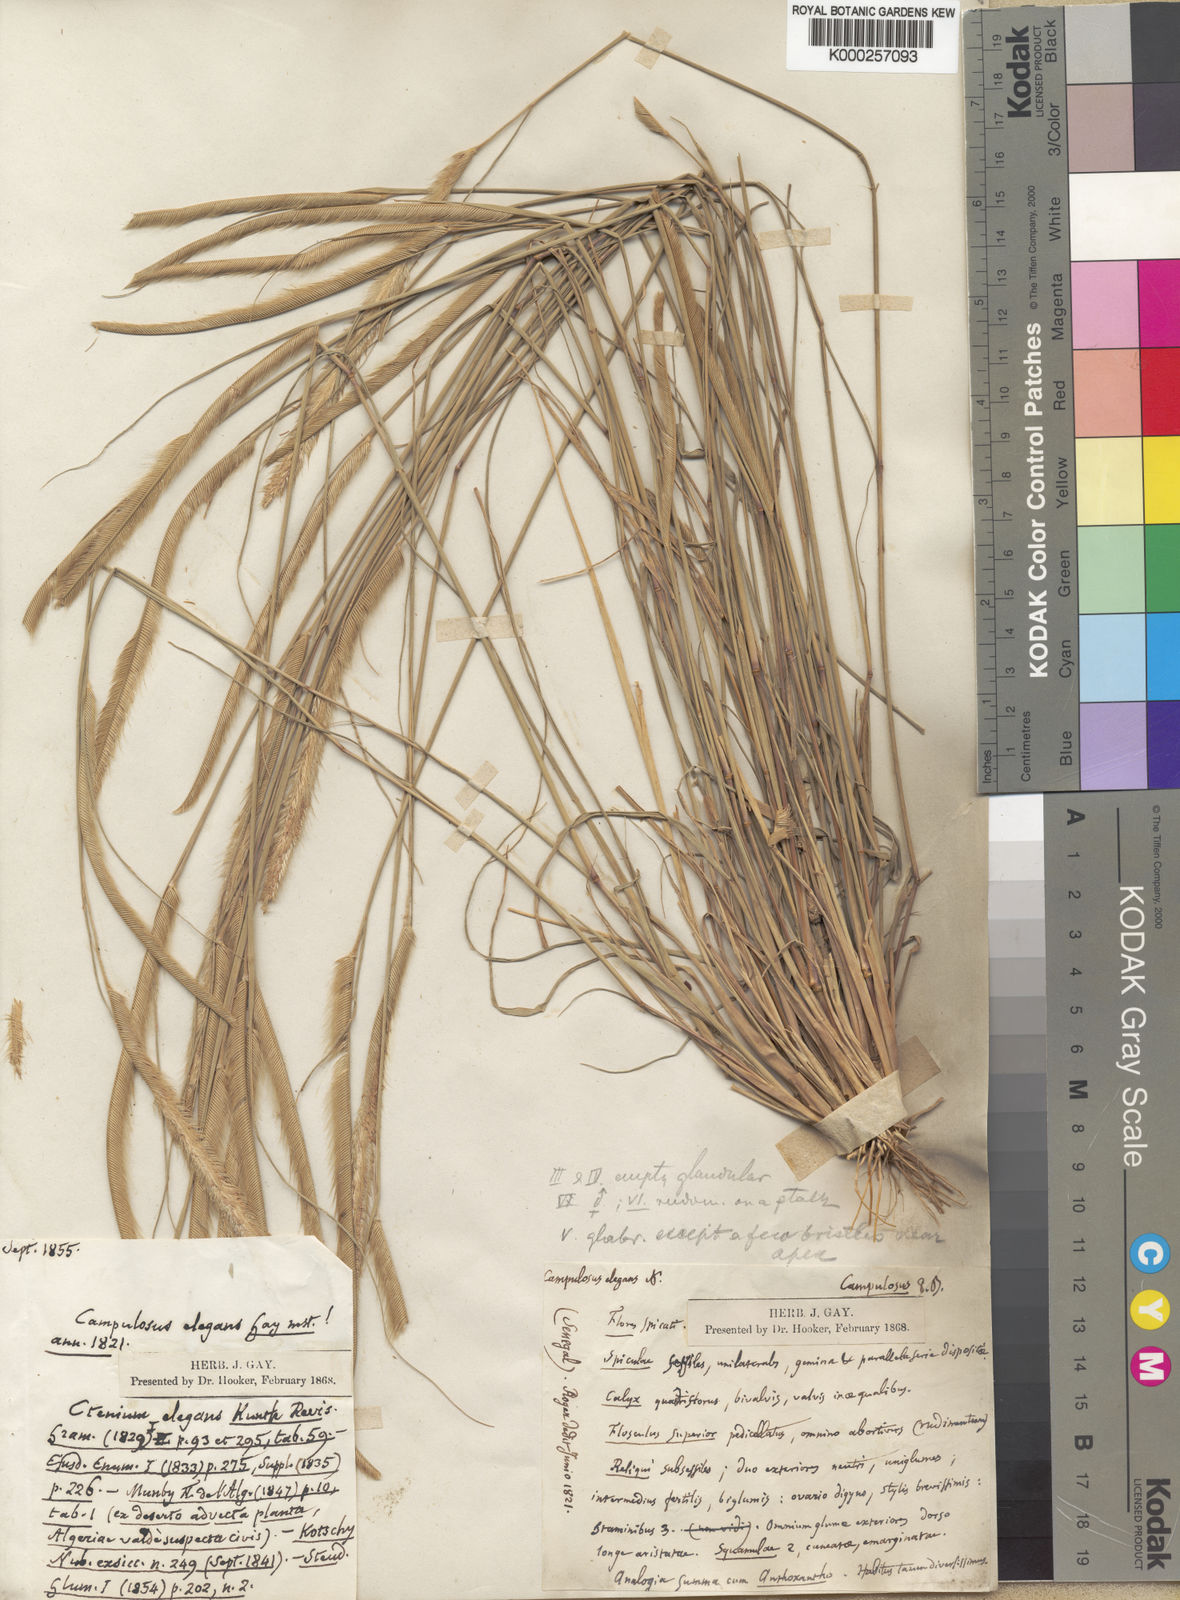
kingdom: Plantae
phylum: Tracheophyta
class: Liliopsida
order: Poales
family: Poaceae
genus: Ctenium
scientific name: Ctenium elegans
